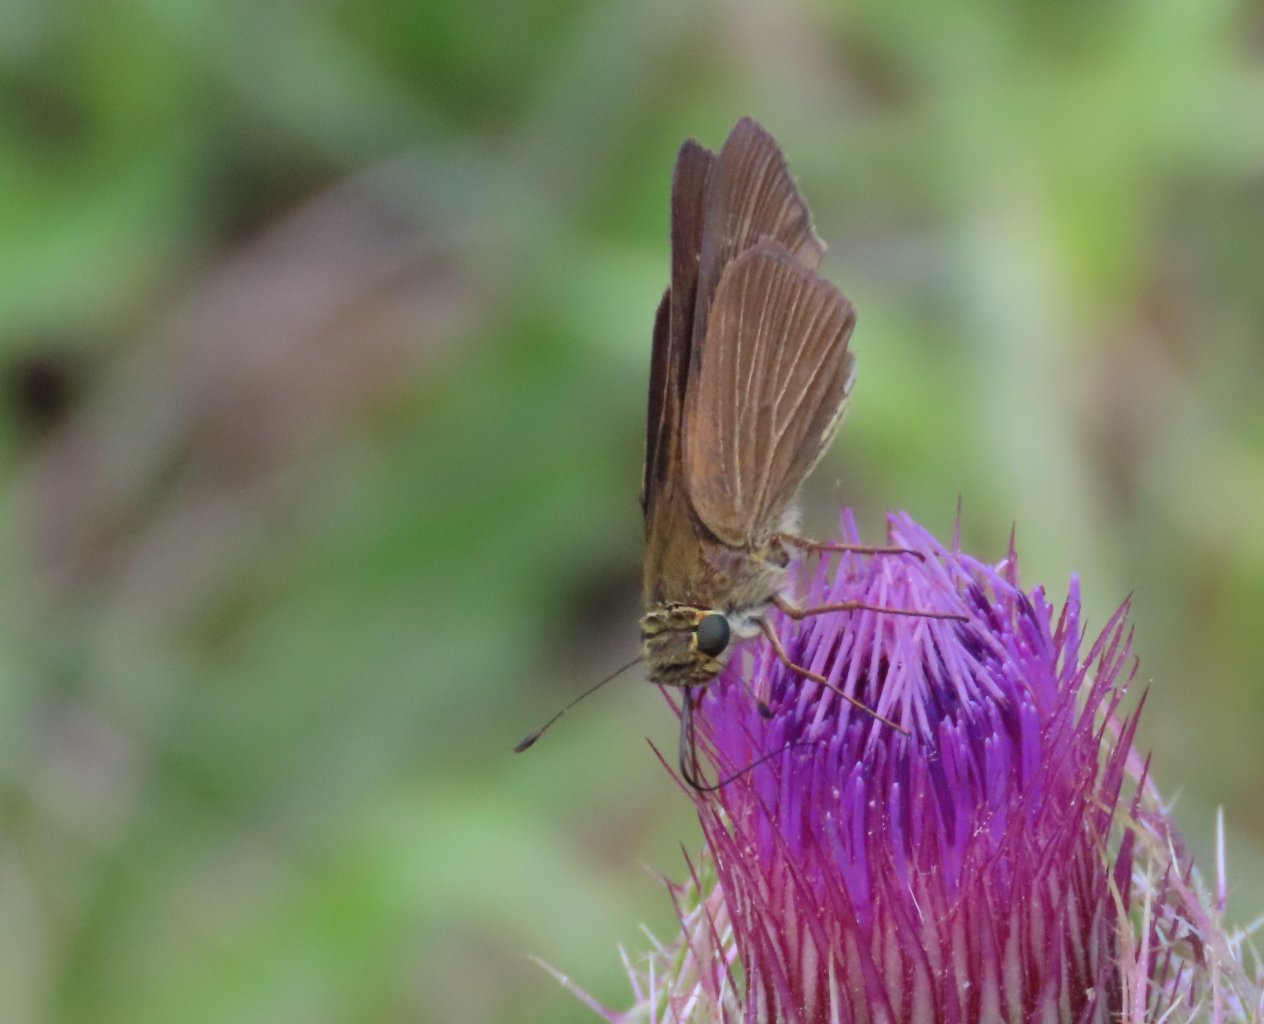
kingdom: Animalia
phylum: Arthropoda
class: Insecta
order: Lepidoptera
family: Hesperiidae
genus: Panoquina
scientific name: Panoquina ocola
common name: Ocola Skipper
